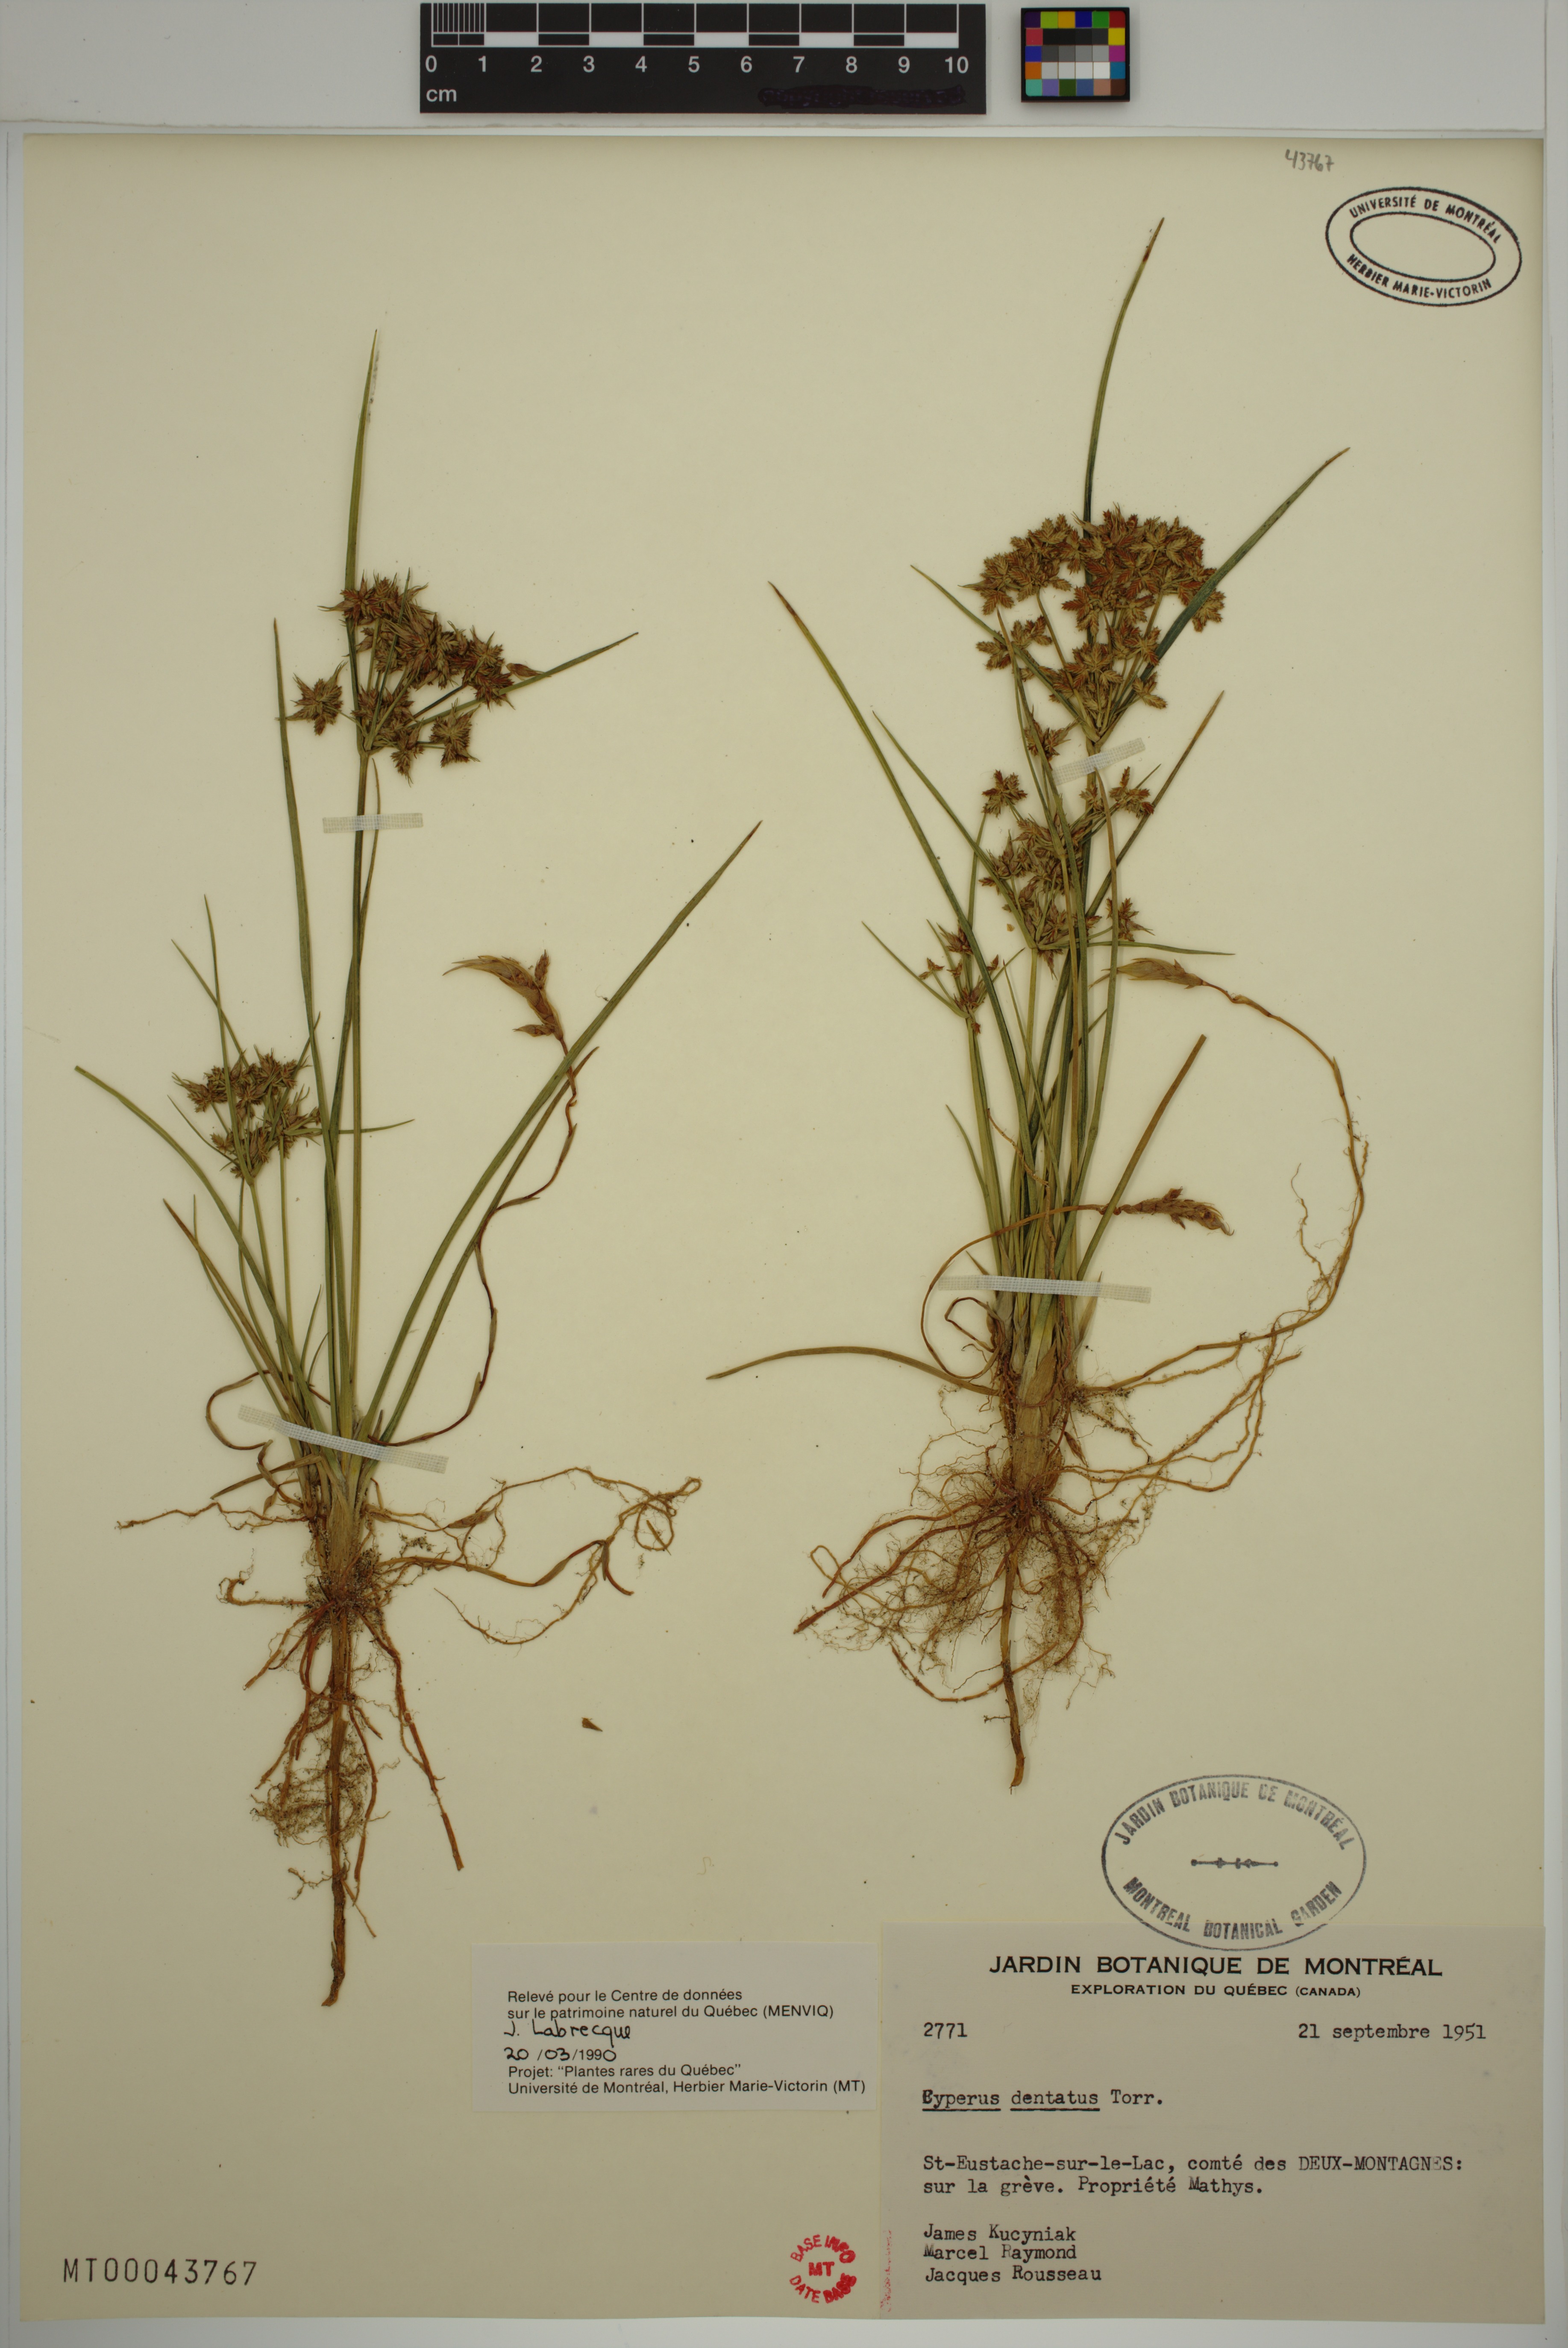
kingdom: Plantae
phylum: Tracheophyta
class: Liliopsida
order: Poales
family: Cyperaceae
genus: Cyperus
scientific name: Cyperus dentatus
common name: Dentate umbrella sedge
